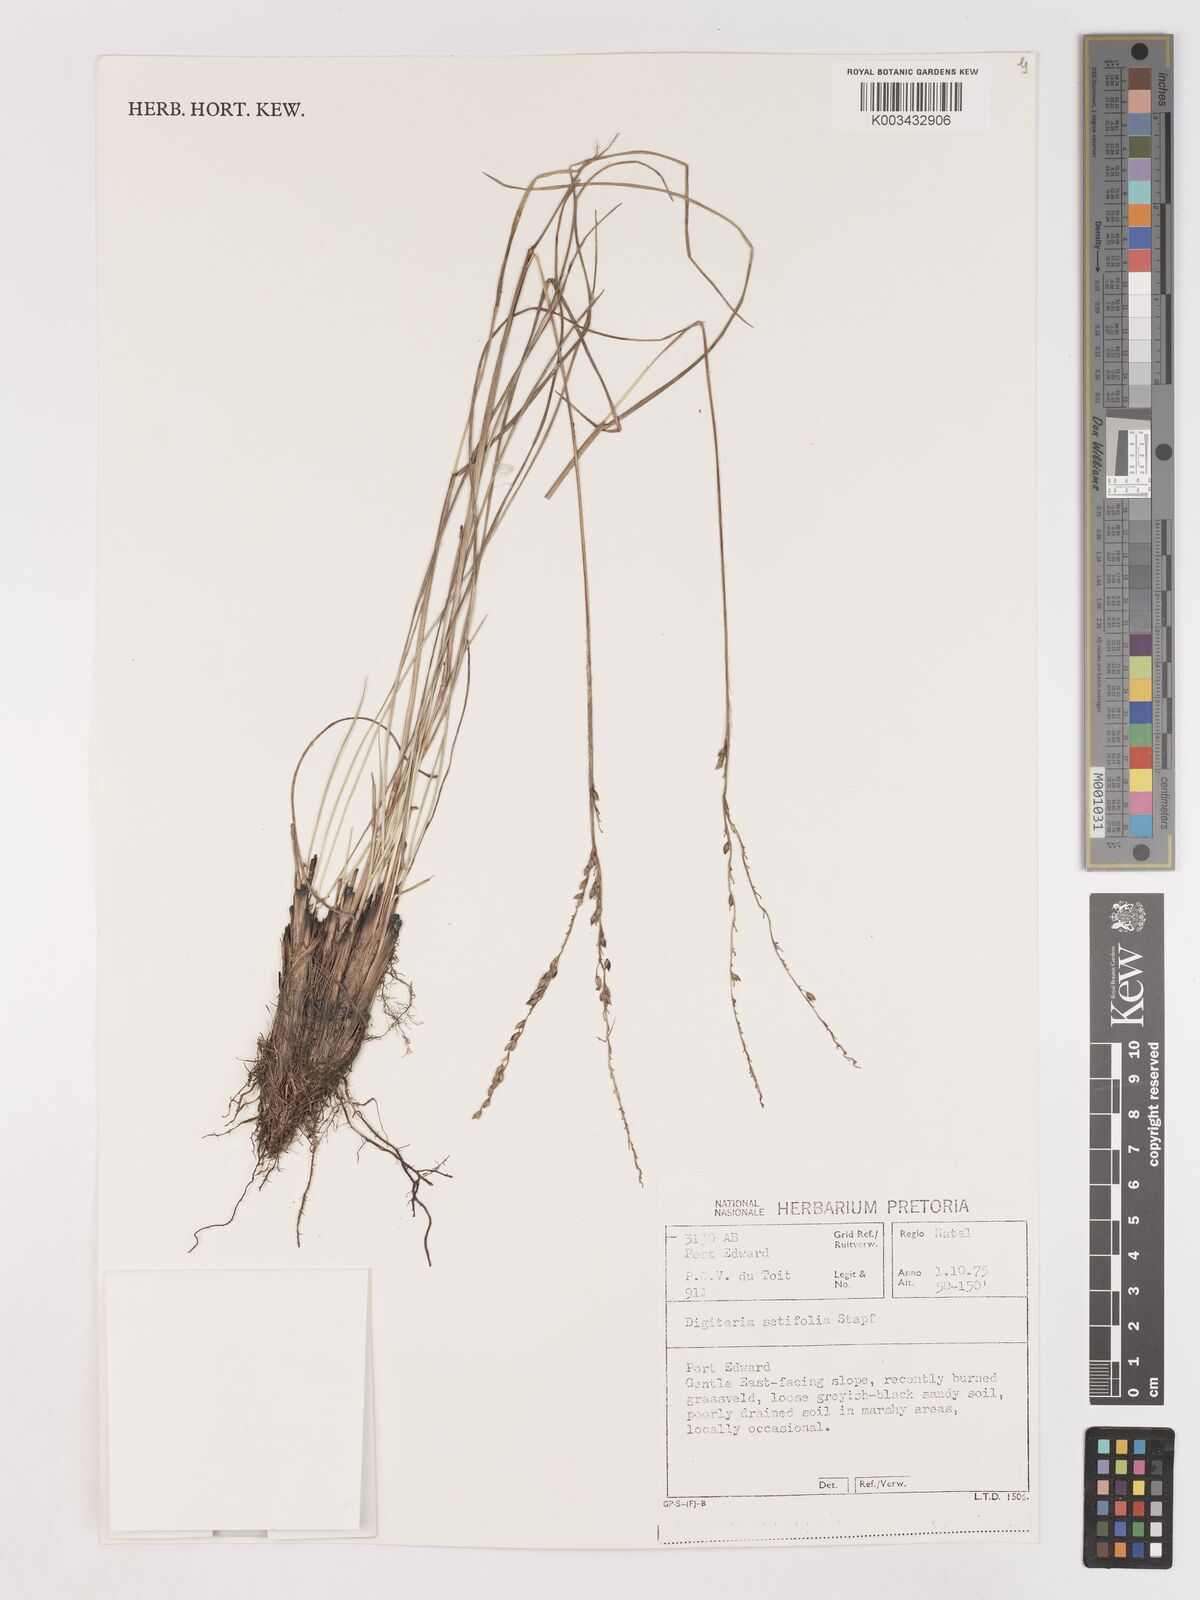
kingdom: Plantae
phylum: Tracheophyta
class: Liliopsida
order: Poales
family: Poaceae
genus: Digitaria
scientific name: Digitaria setifolia
